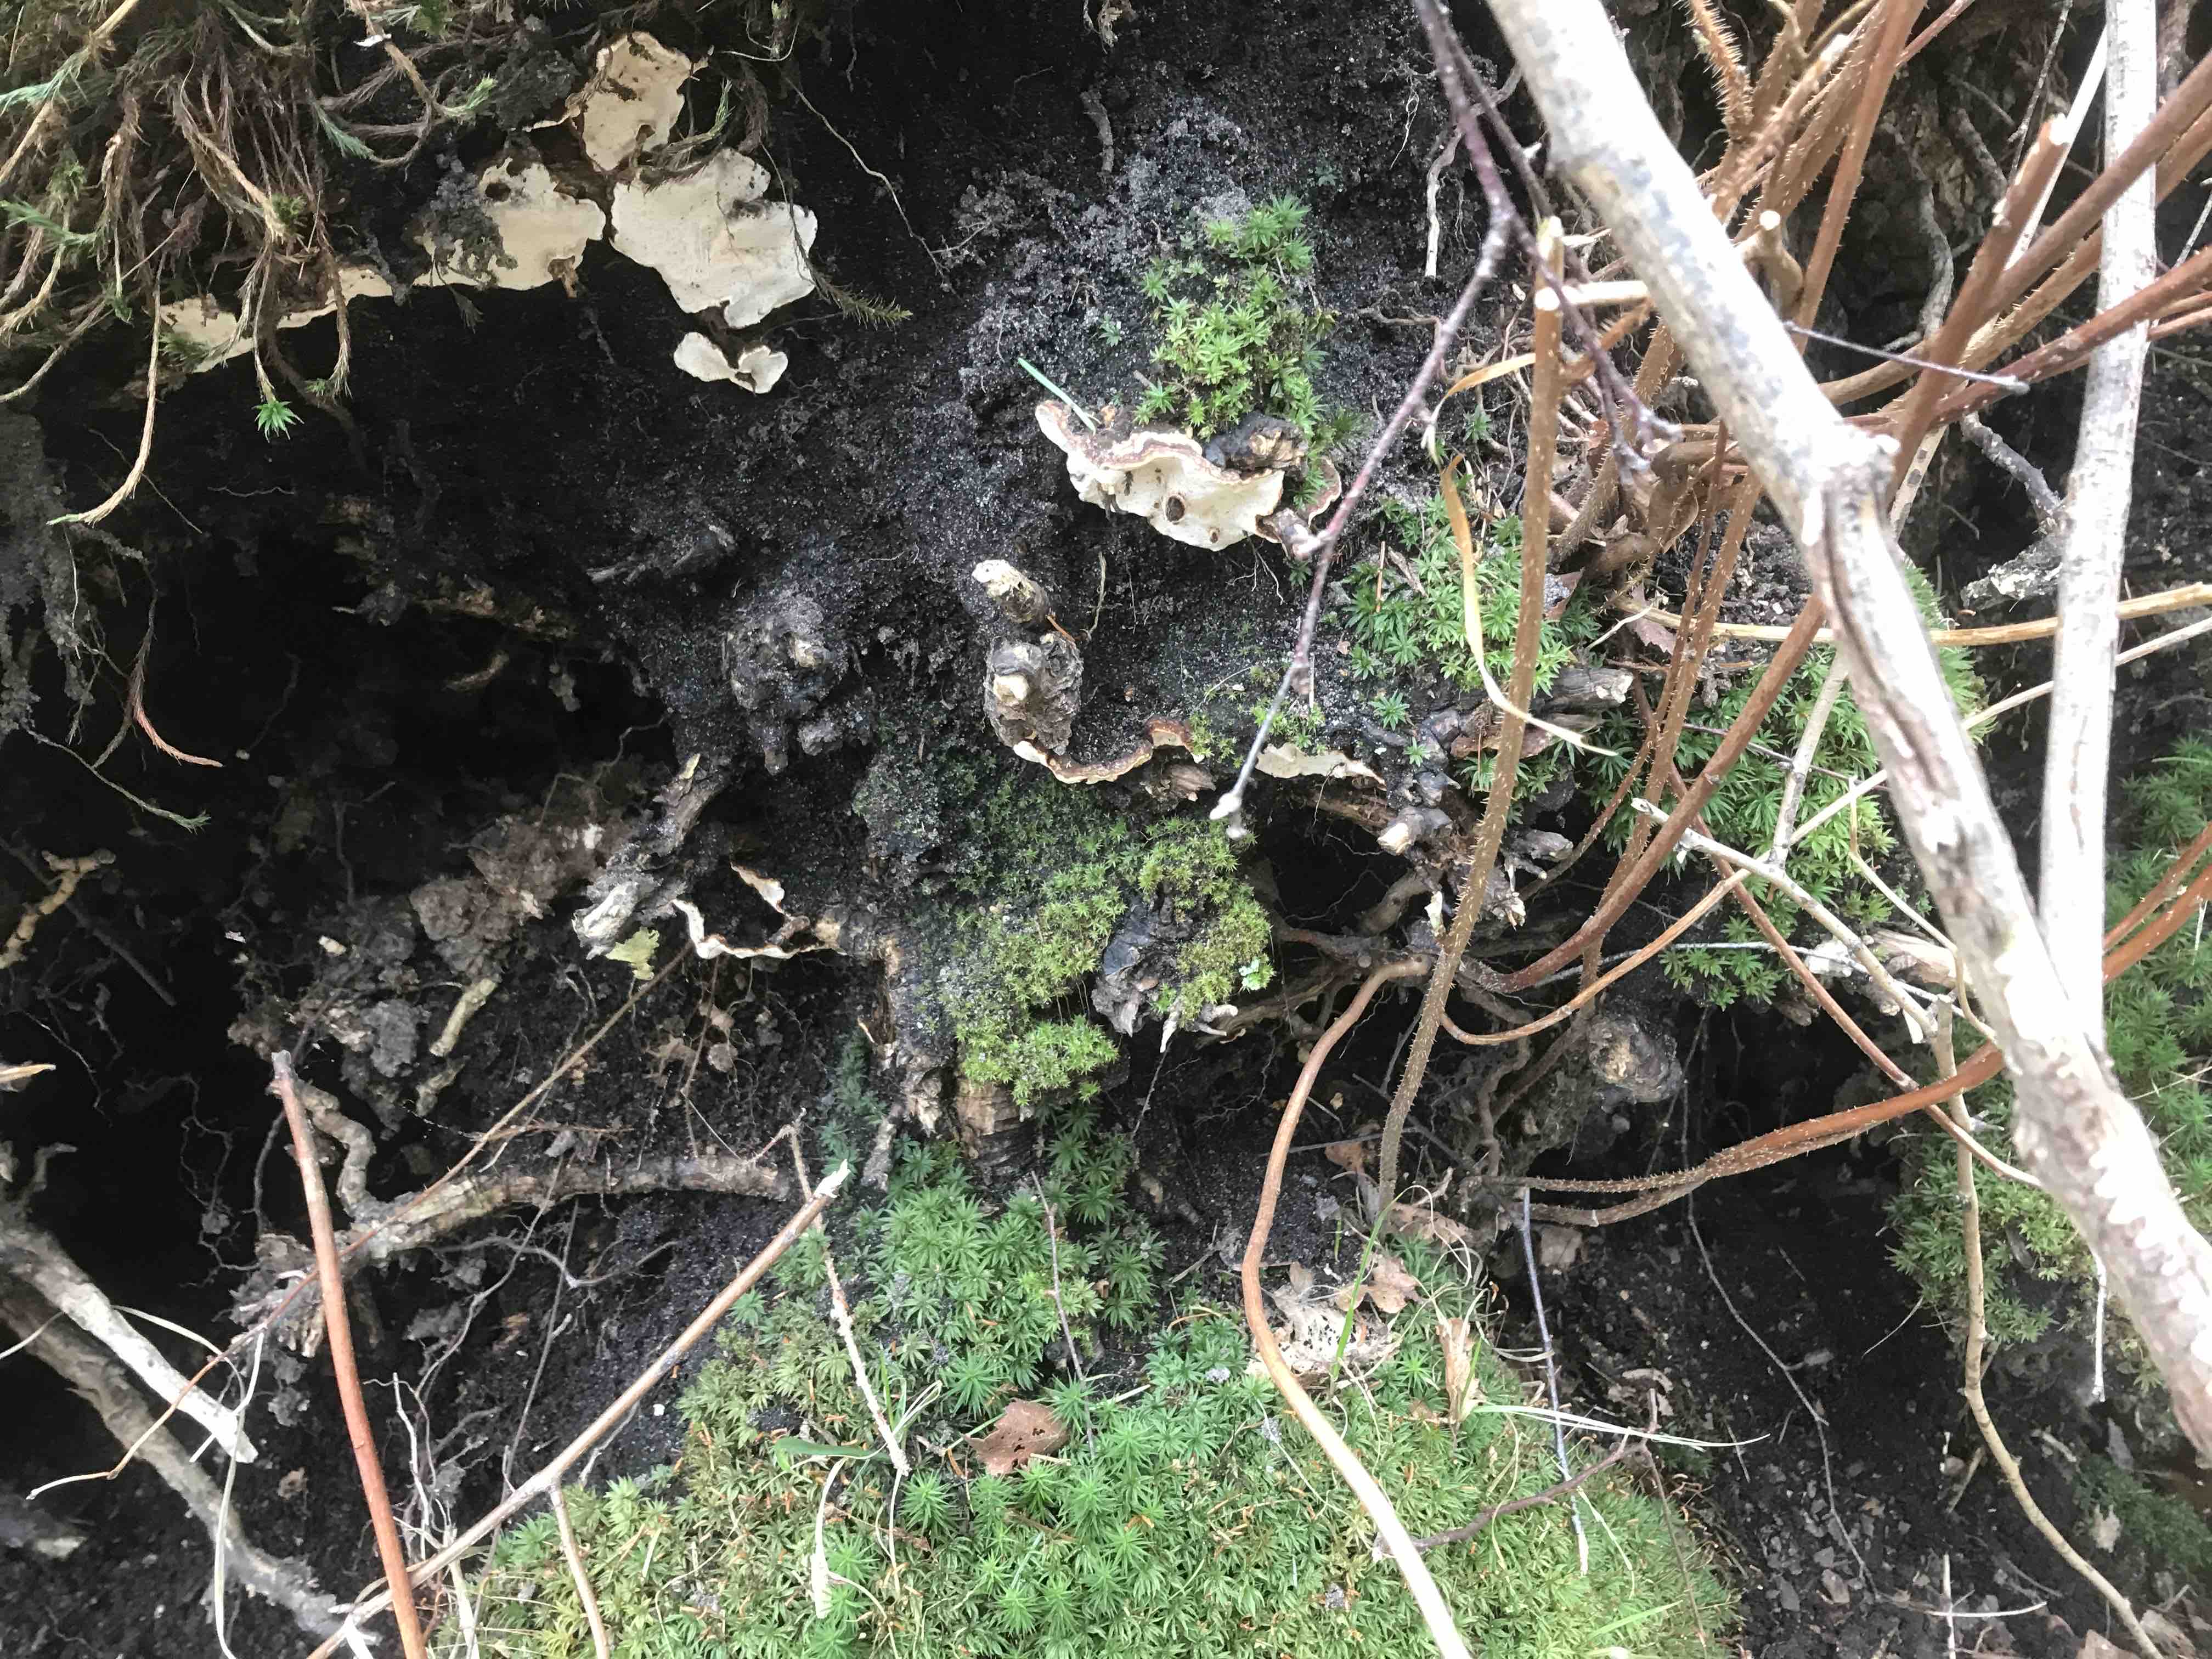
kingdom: Fungi
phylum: Basidiomycota
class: Agaricomycetes
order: Russulales
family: Bondarzewiaceae
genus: Heterobasidion
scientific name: Heterobasidion annosum
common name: almindelig rodfordærver
